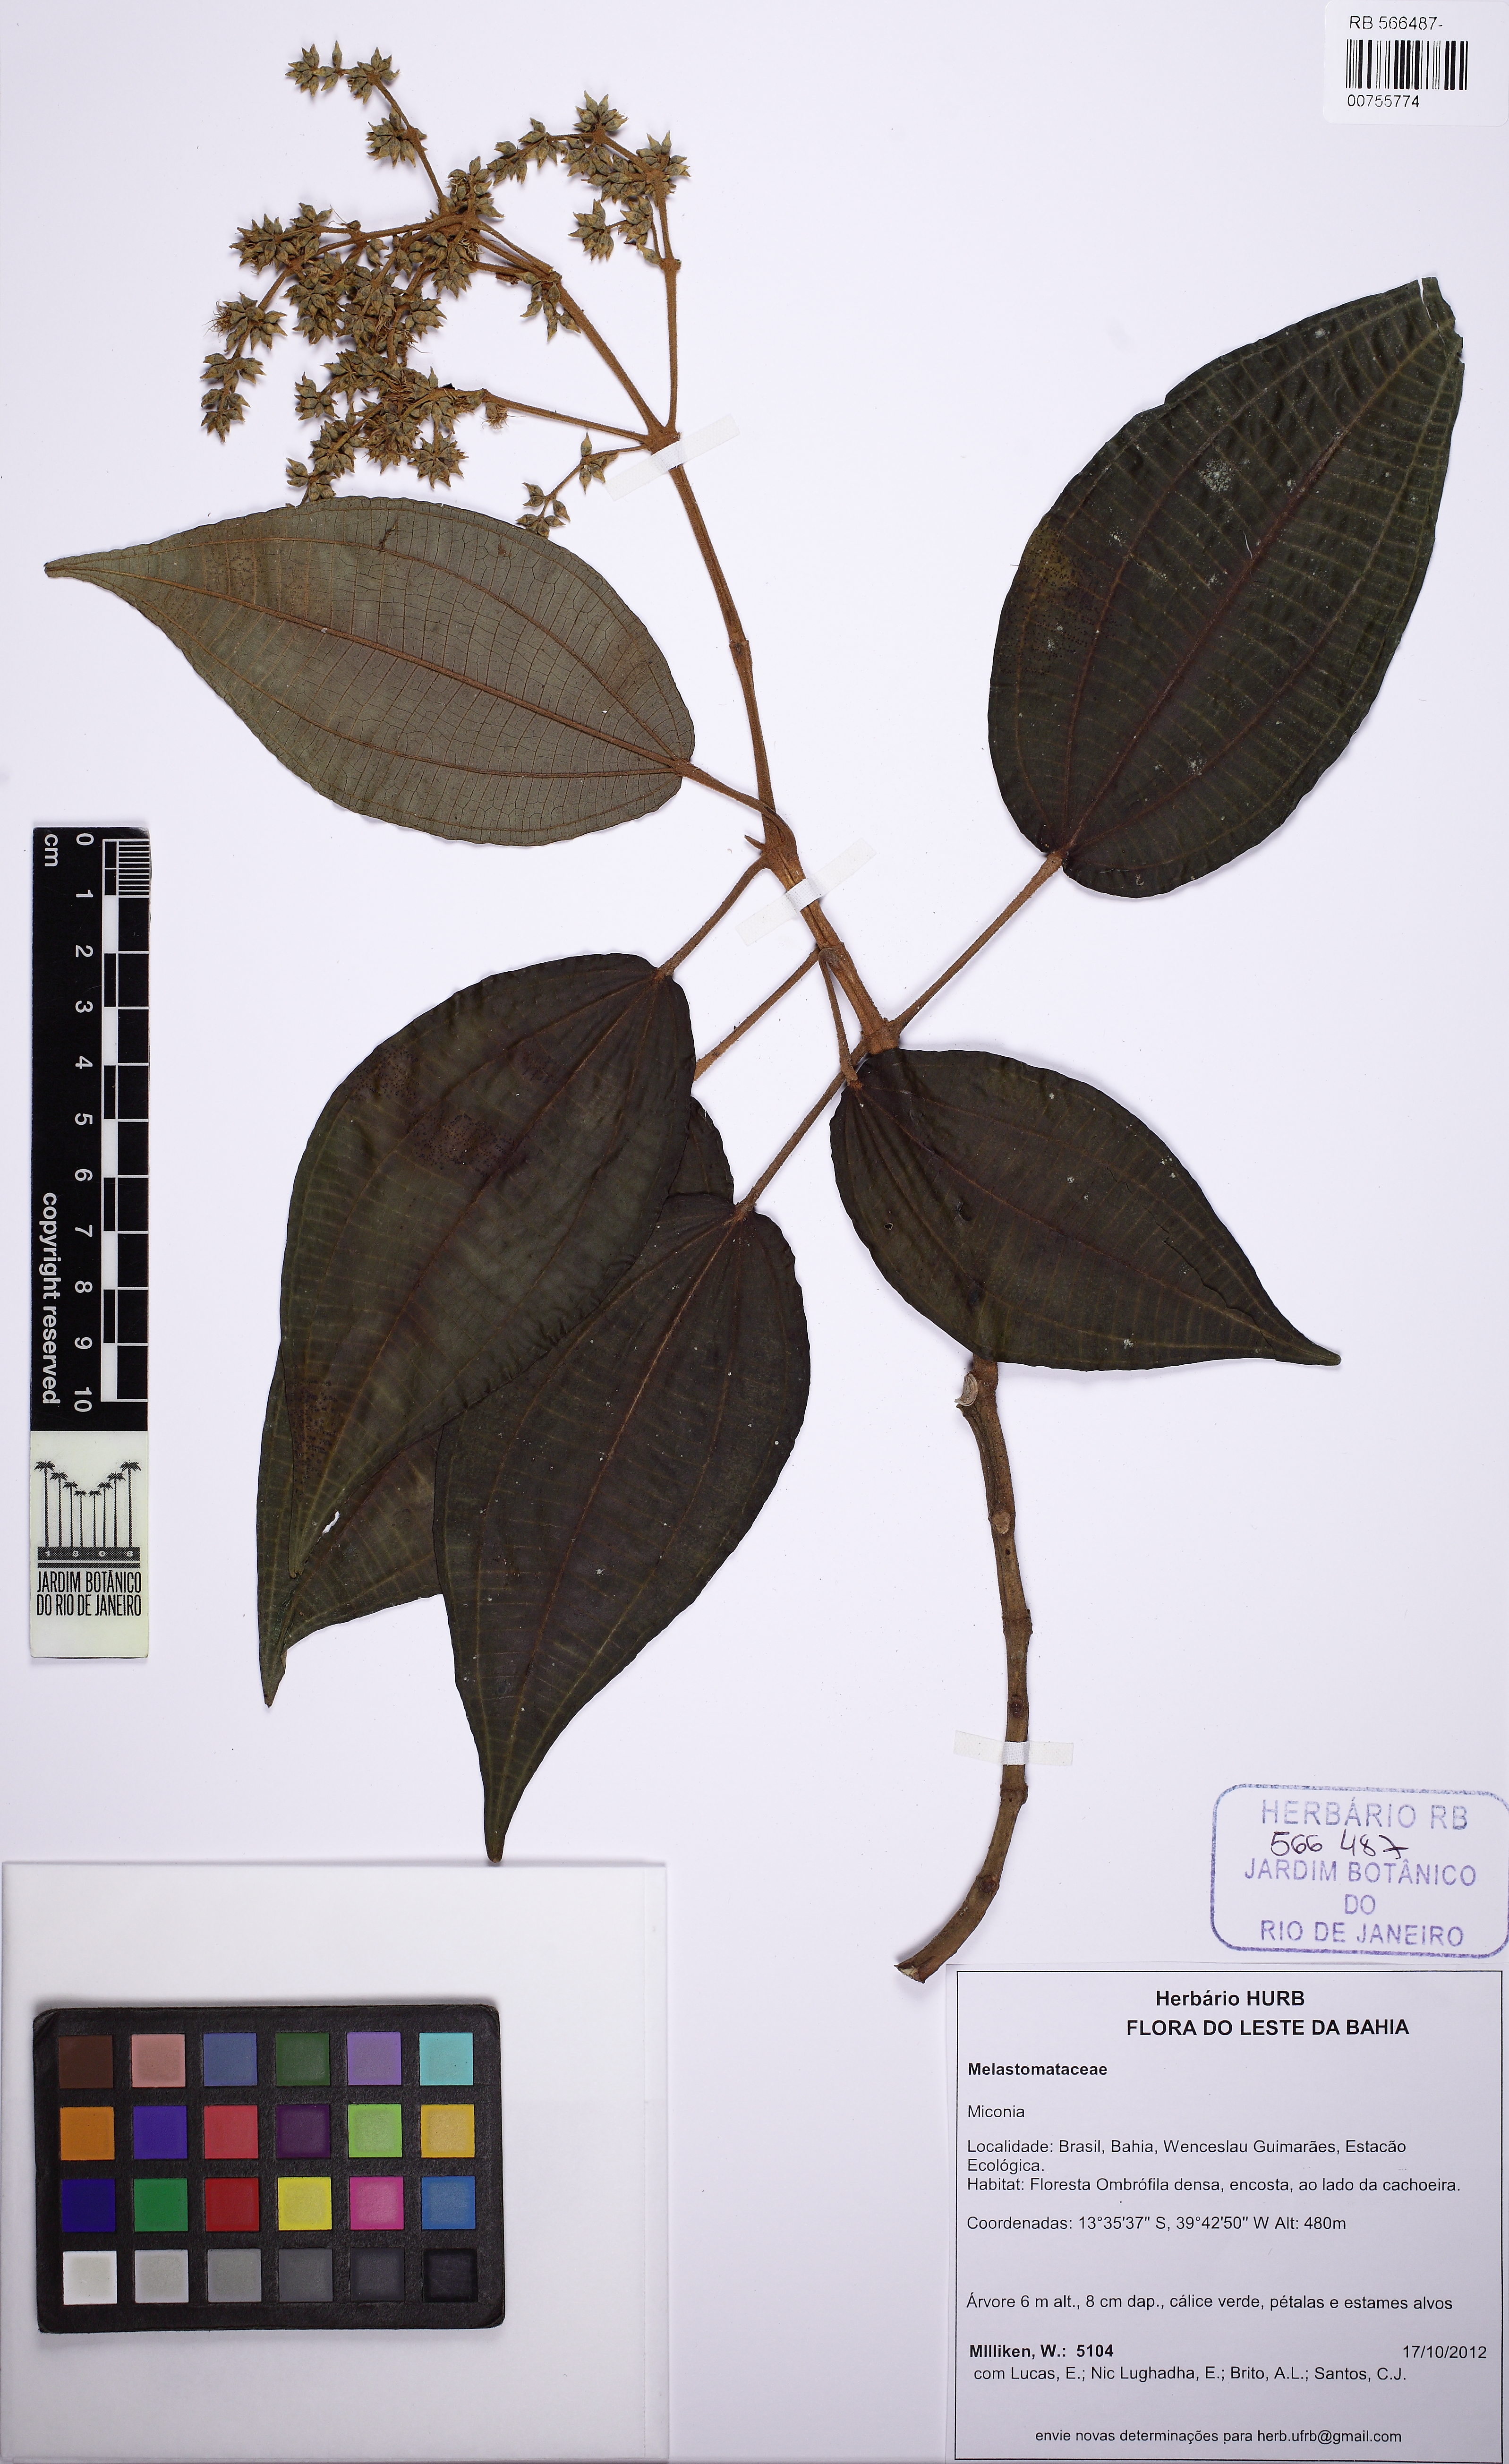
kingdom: Plantae
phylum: Tracheophyta
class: Magnoliopsida
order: Myrtales
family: Melastomataceae
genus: Graffenrieda
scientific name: Graffenrieda intermedia
